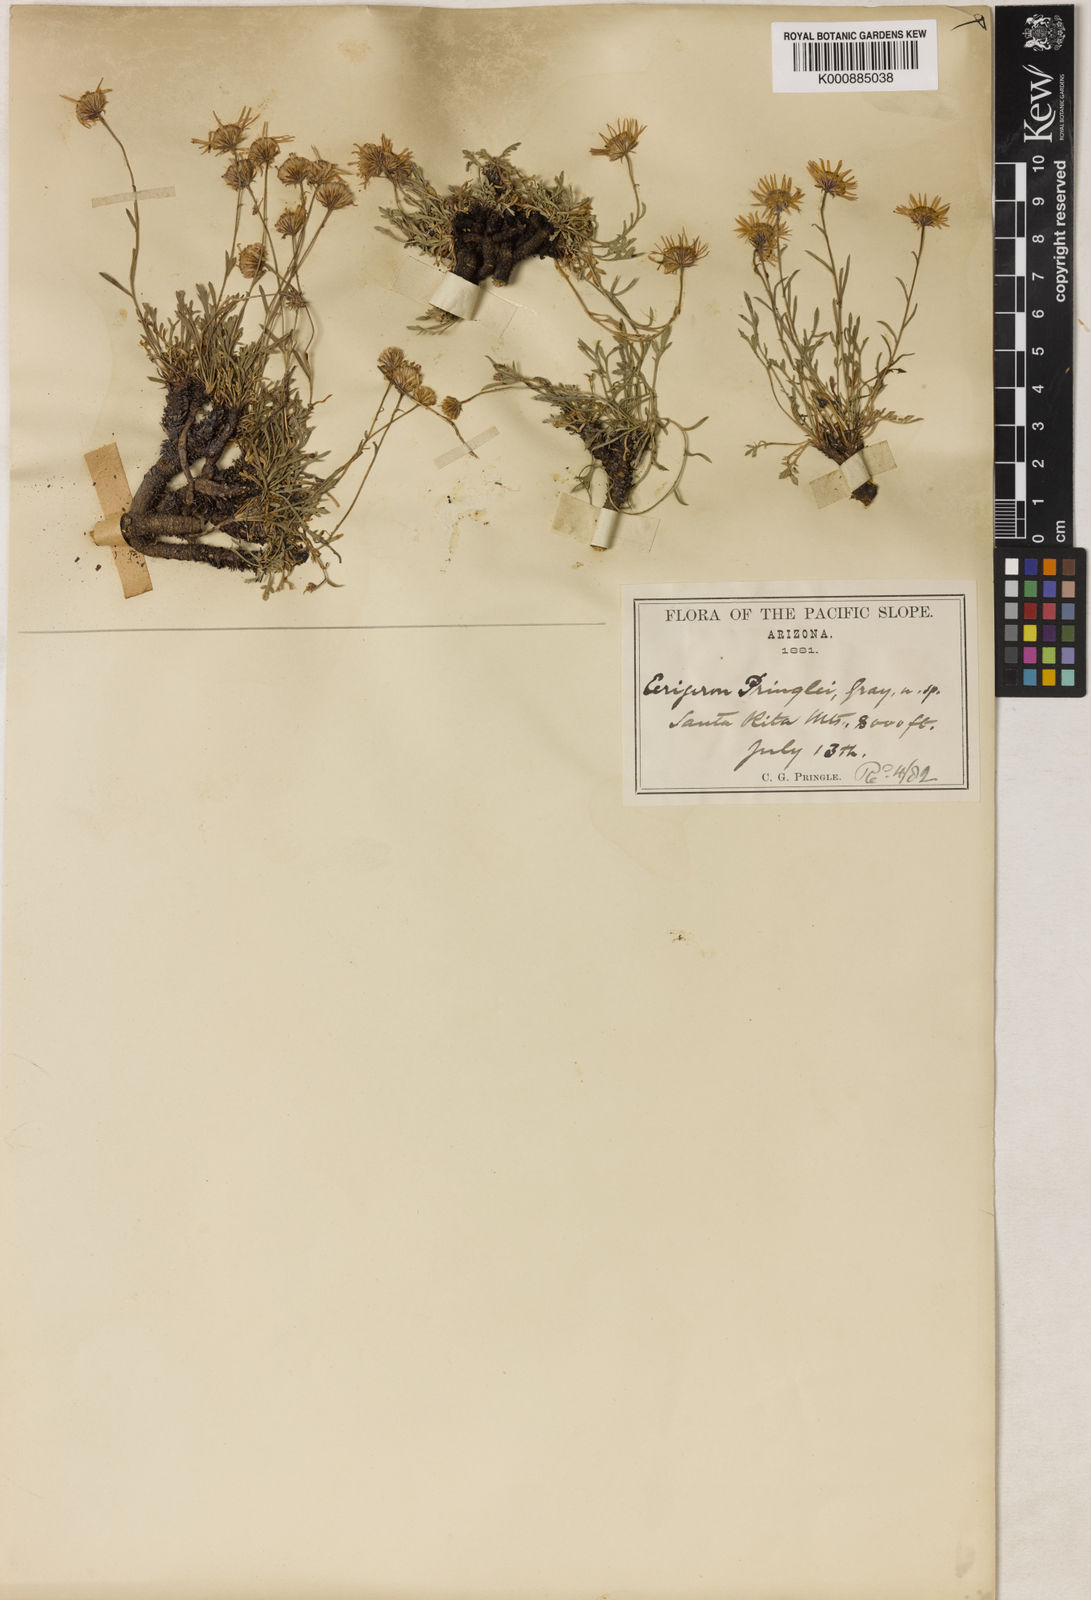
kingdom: Plantae
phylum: Tracheophyta
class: Magnoliopsida
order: Asterales
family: Asteraceae
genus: Erigeron
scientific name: Erigeron
